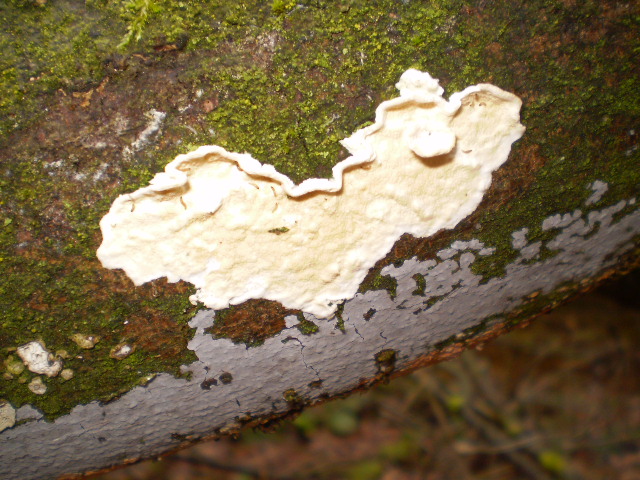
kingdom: Fungi
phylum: Basidiomycota
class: Agaricomycetes
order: Polyporales
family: Irpicaceae
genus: Byssomerulius
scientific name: Byssomerulius corium
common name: læder-åresvamp
